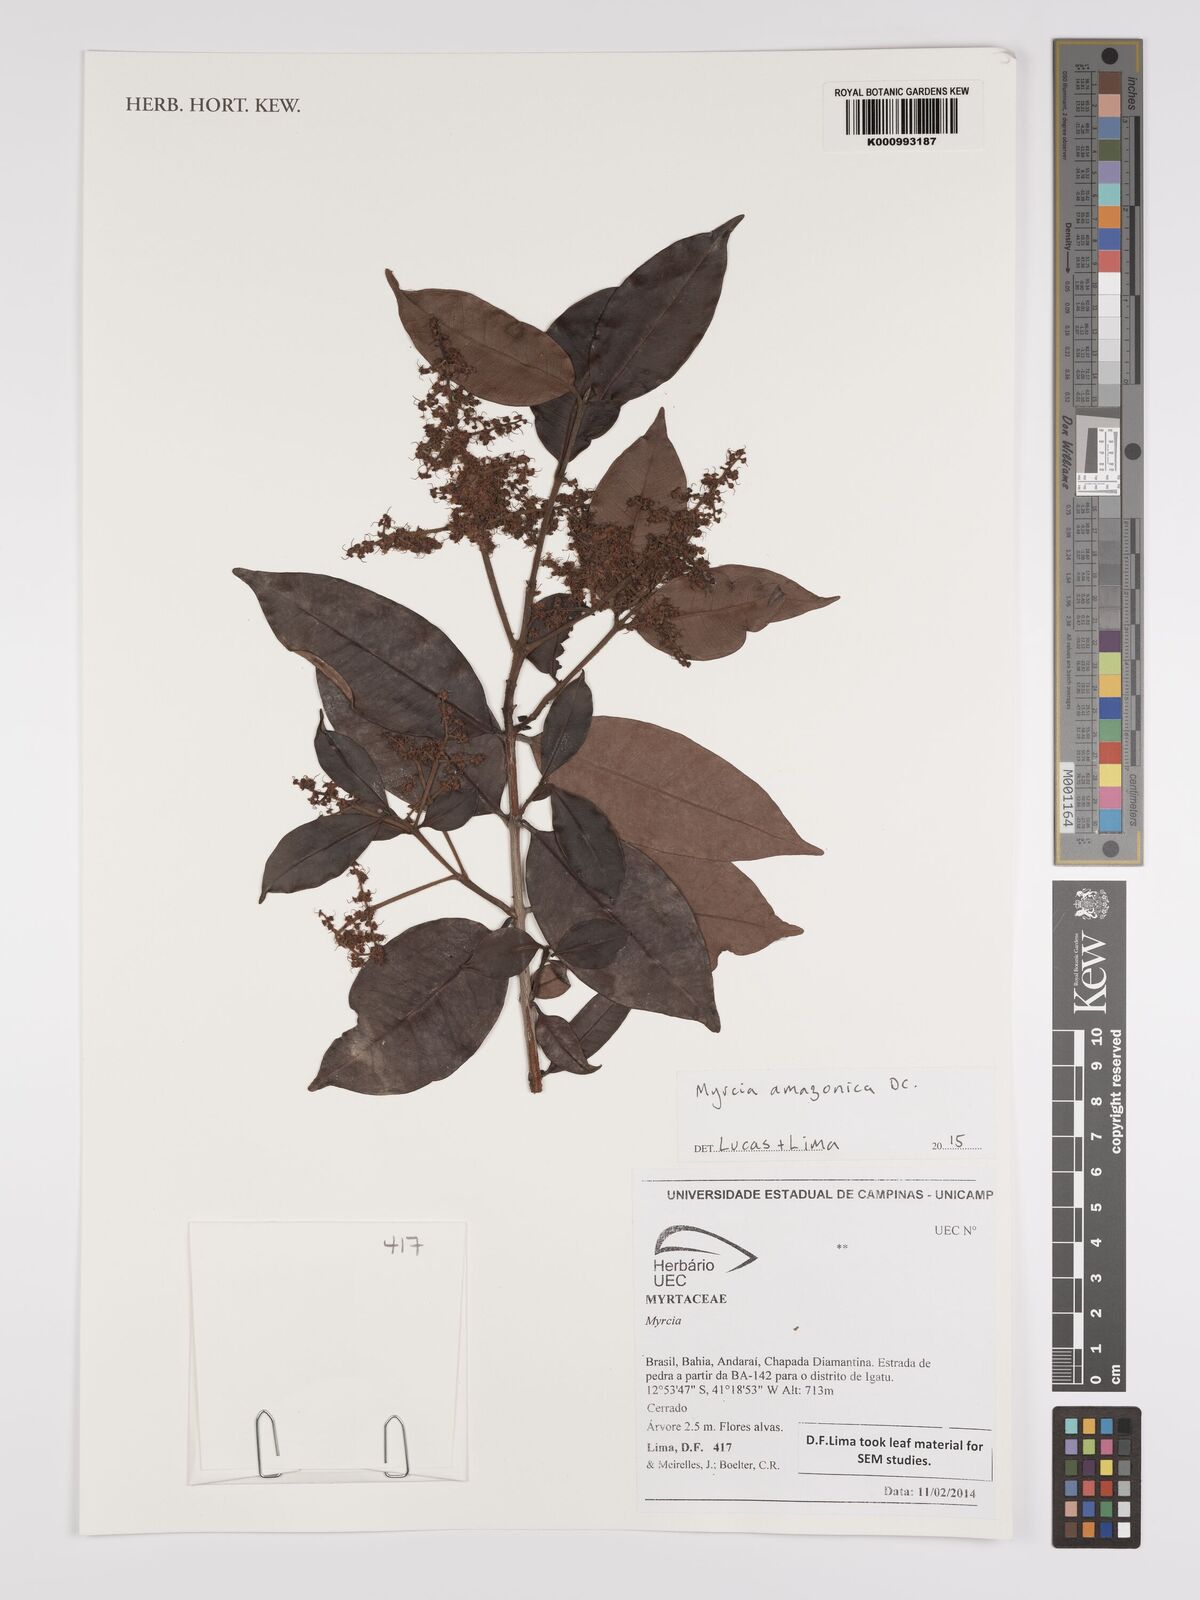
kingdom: Plantae
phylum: Tracheophyta
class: Magnoliopsida
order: Myrtales
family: Myrtaceae
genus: Myrcia
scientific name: Myrcia amazonica
